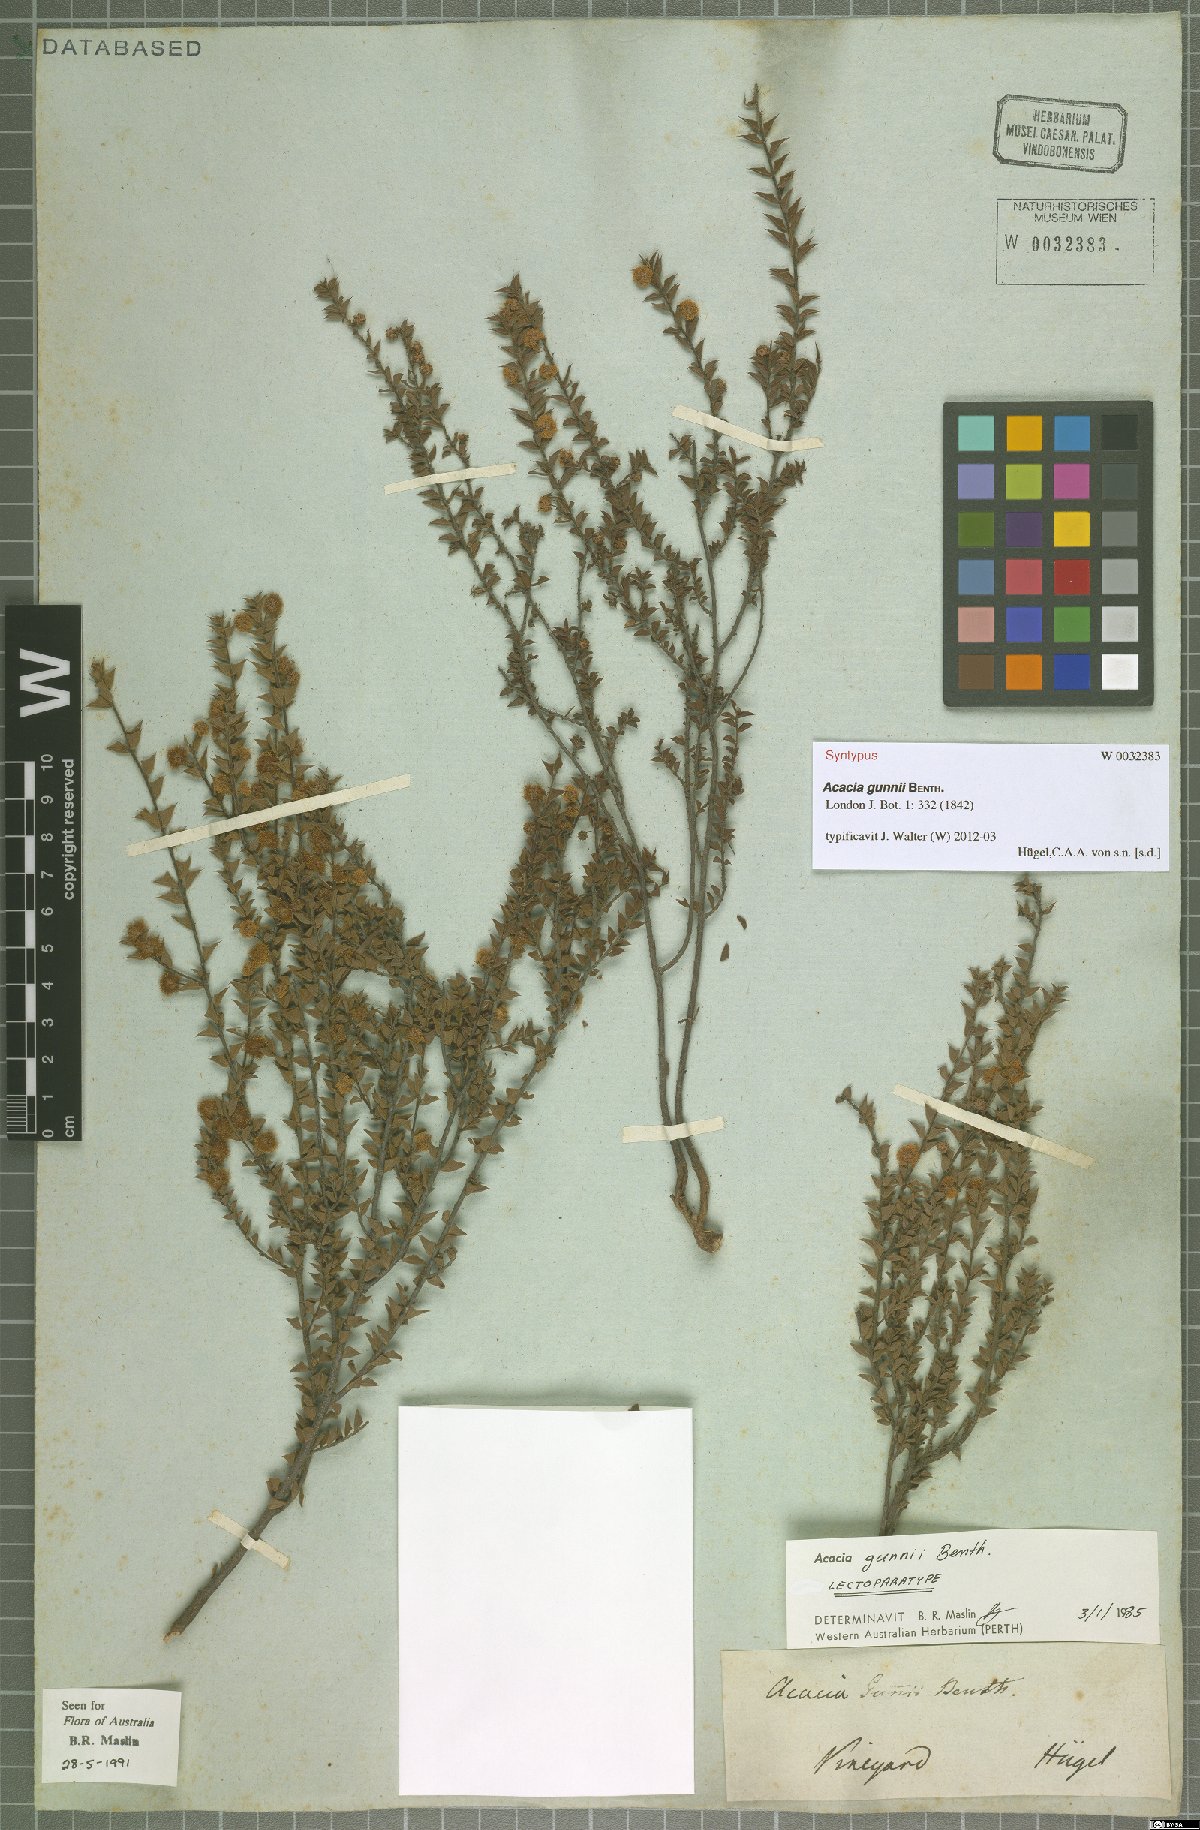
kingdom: Plantae
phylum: Tracheophyta
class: Magnoliopsida
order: Fabales
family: Fabaceae
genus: Acacia
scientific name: Acacia gunnii
